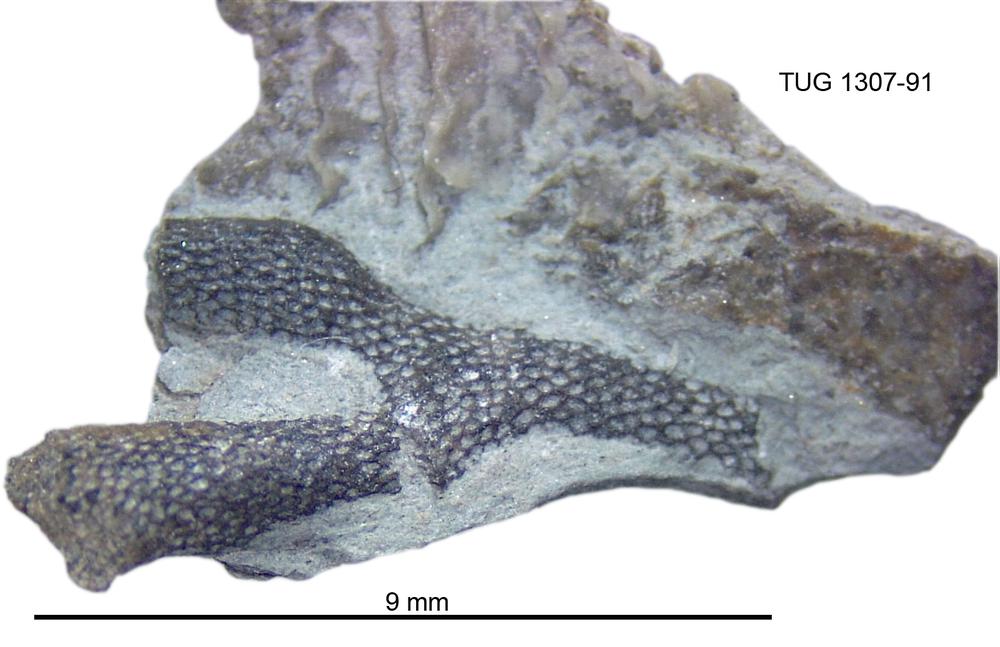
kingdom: Animalia
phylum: Bryozoa
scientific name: Bryozoa
